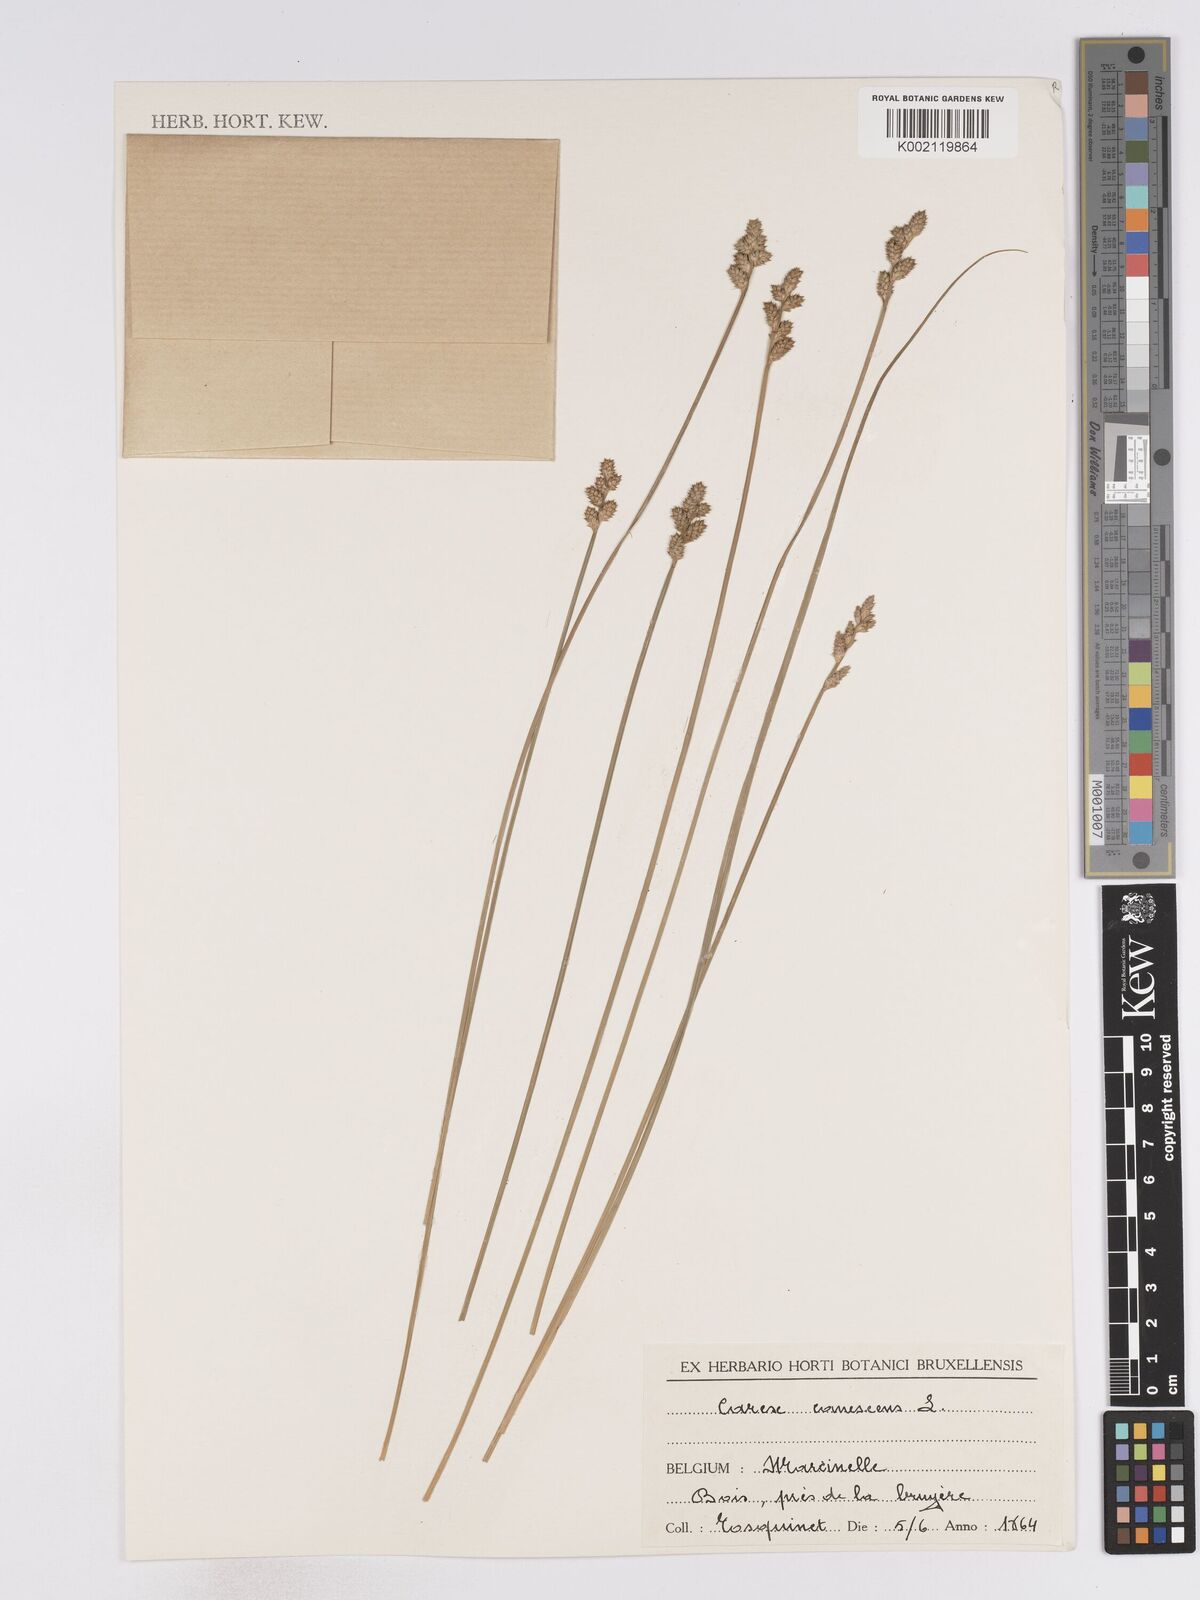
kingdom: Plantae
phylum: Tracheophyta
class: Liliopsida
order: Poales
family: Cyperaceae
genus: Carex
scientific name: Carex curta
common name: White sedge
